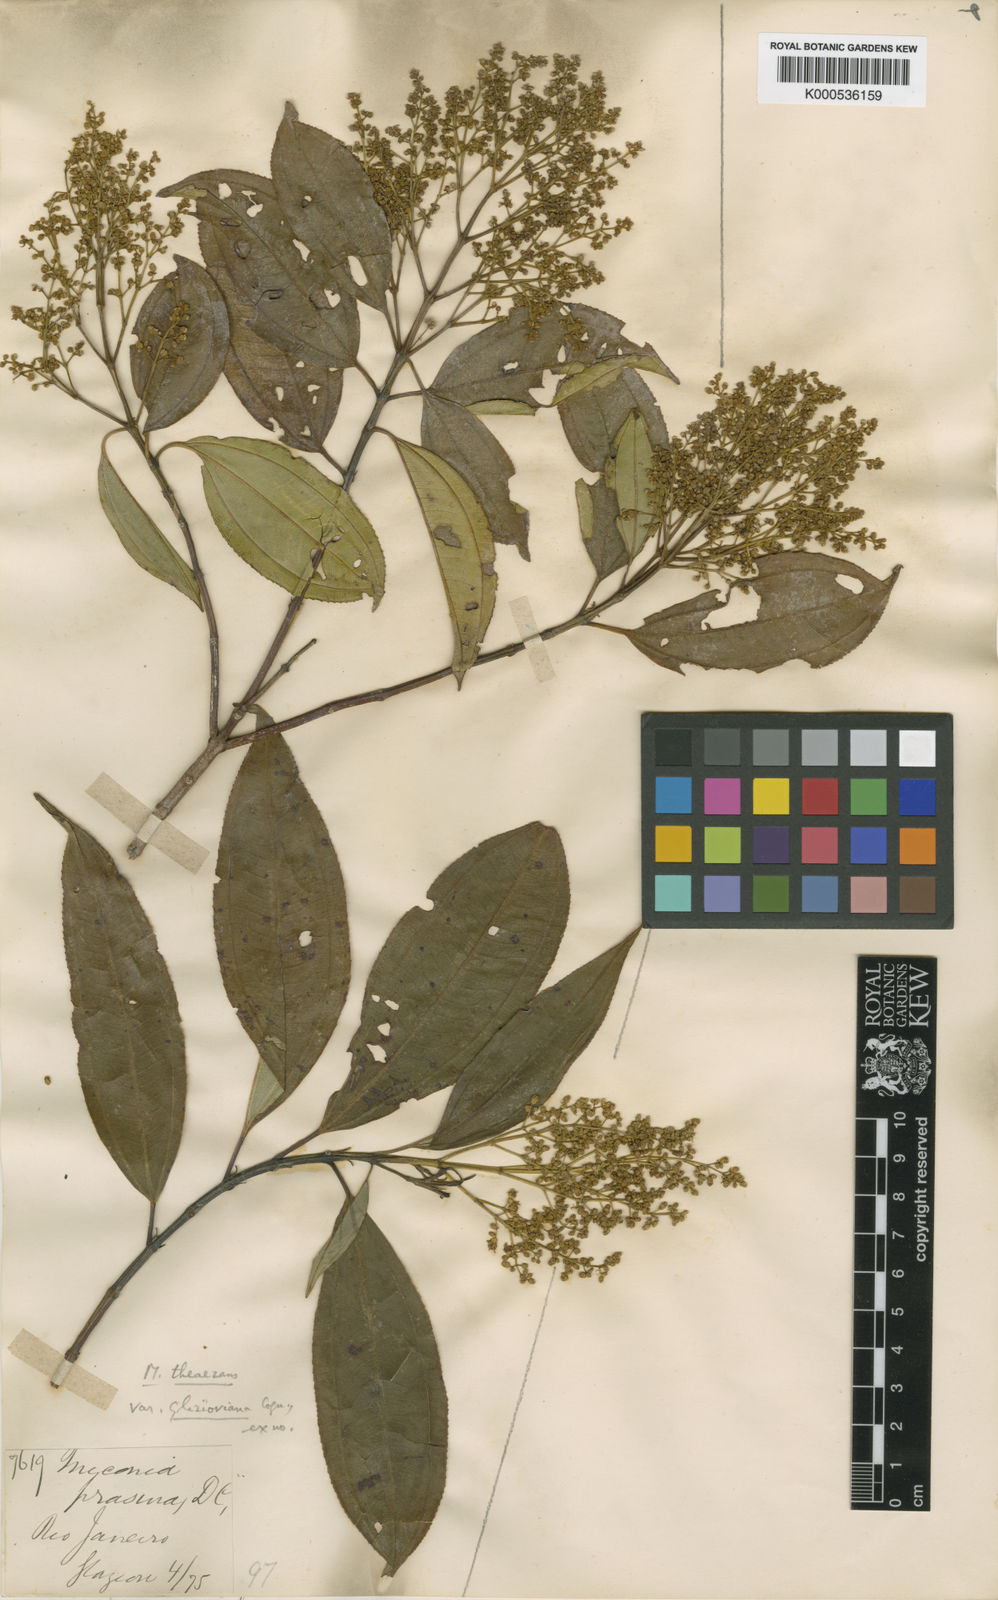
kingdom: Plantae
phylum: Tracheophyta
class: Magnoliopsida
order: Myrtales
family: Melastomataceae
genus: Miconia
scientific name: Miconia
